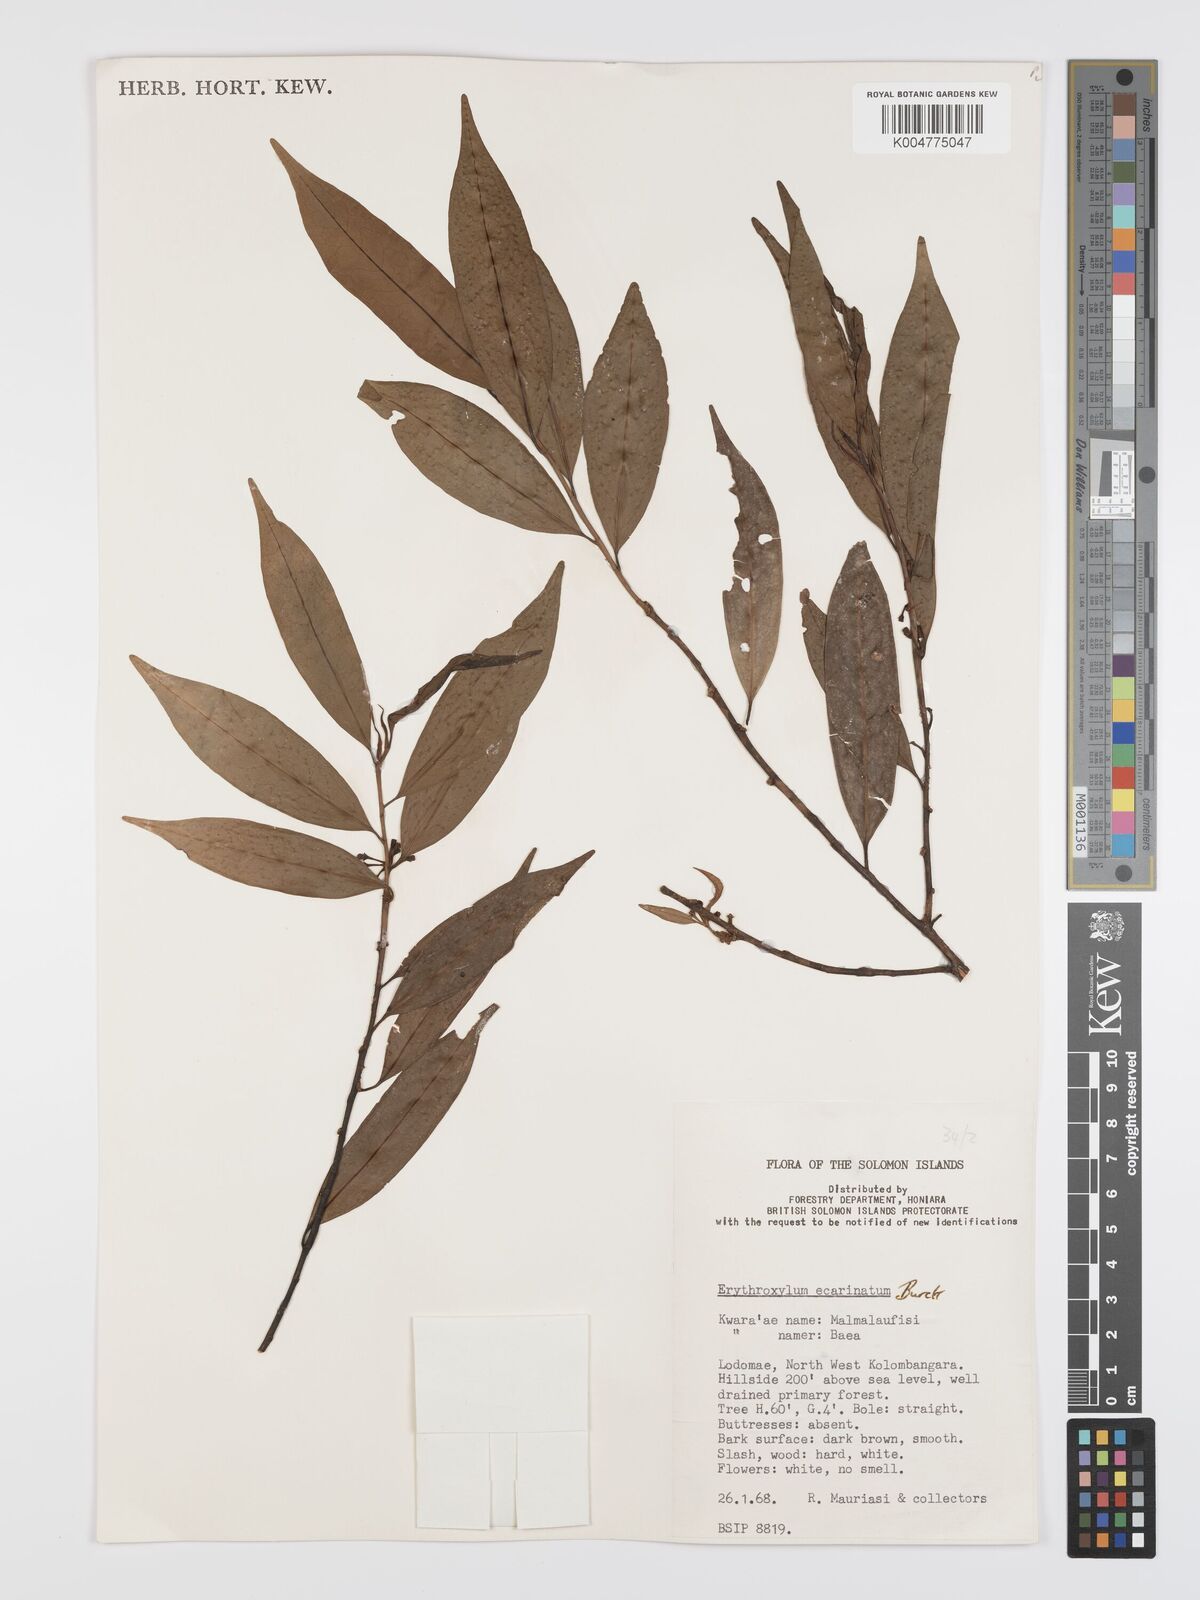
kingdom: Plantae
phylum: Tracheophyta
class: Magnoliopsida
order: Malpighiales
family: Erythroxylaceae
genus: Erythroxylum
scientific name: Erythroxylum ecarinatum
